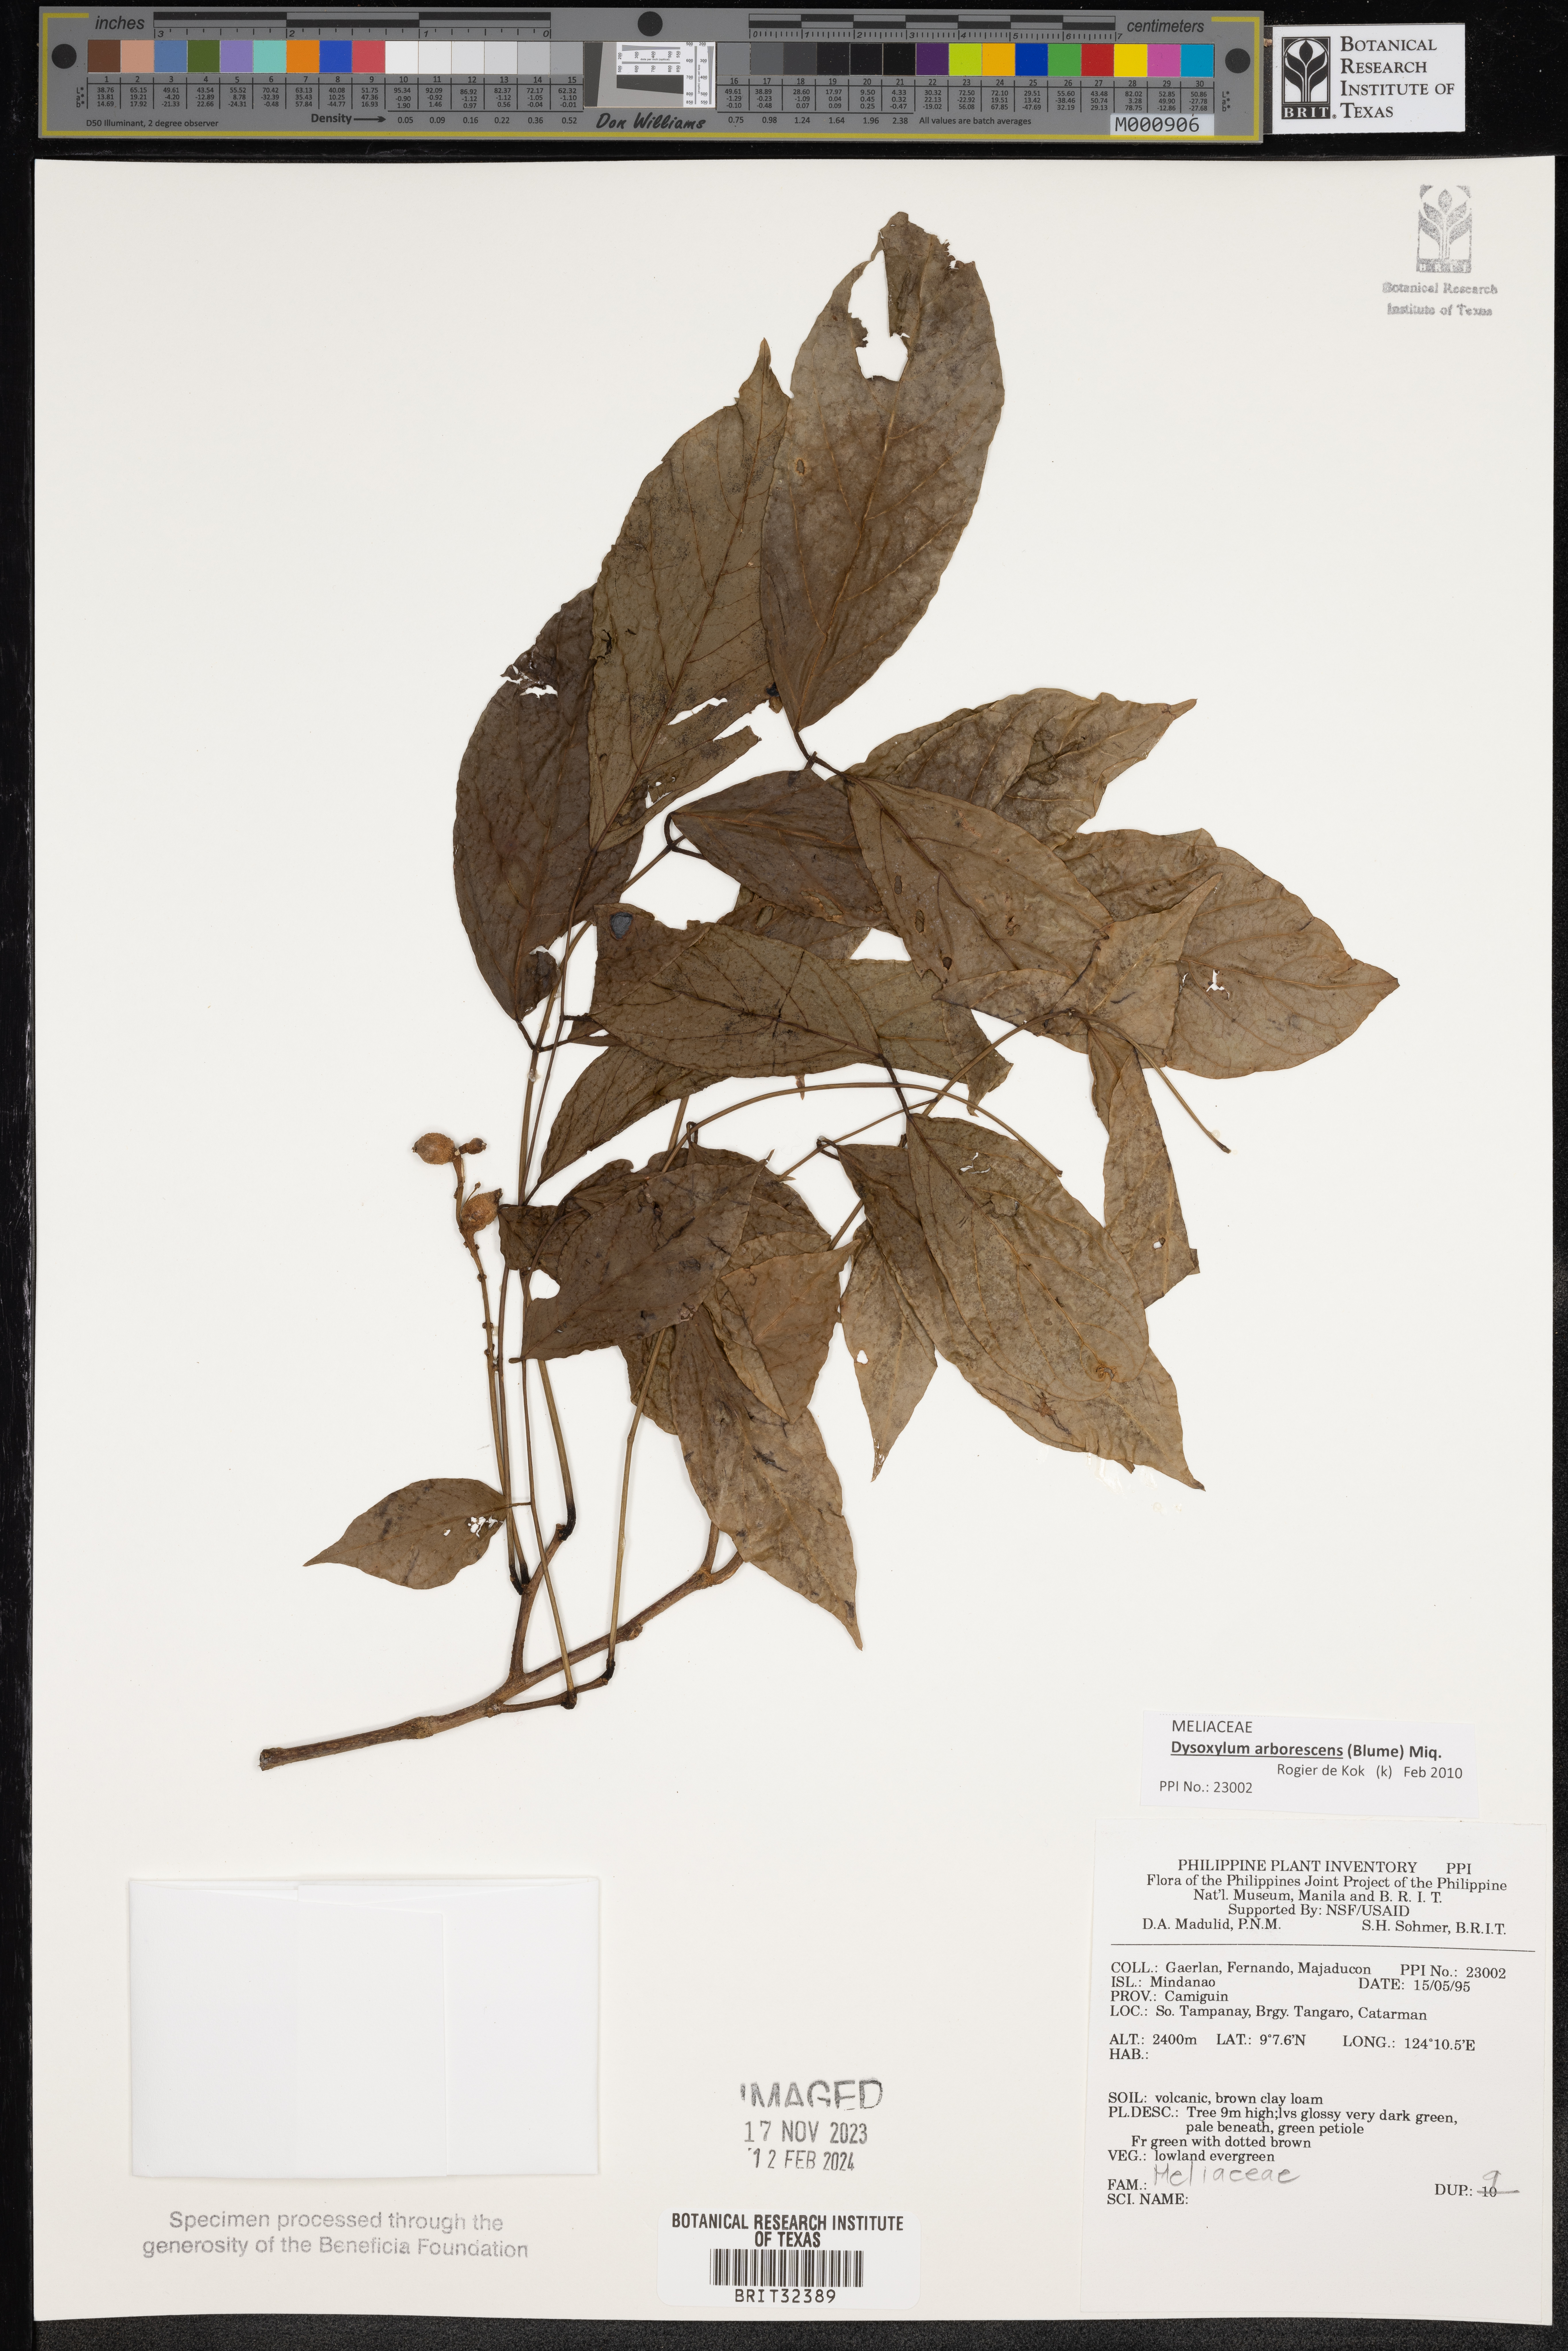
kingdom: Plantae
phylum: Tracheophyta
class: Magnoliopsida
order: Sapindales
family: Meliaceae
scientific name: Meliaceae
